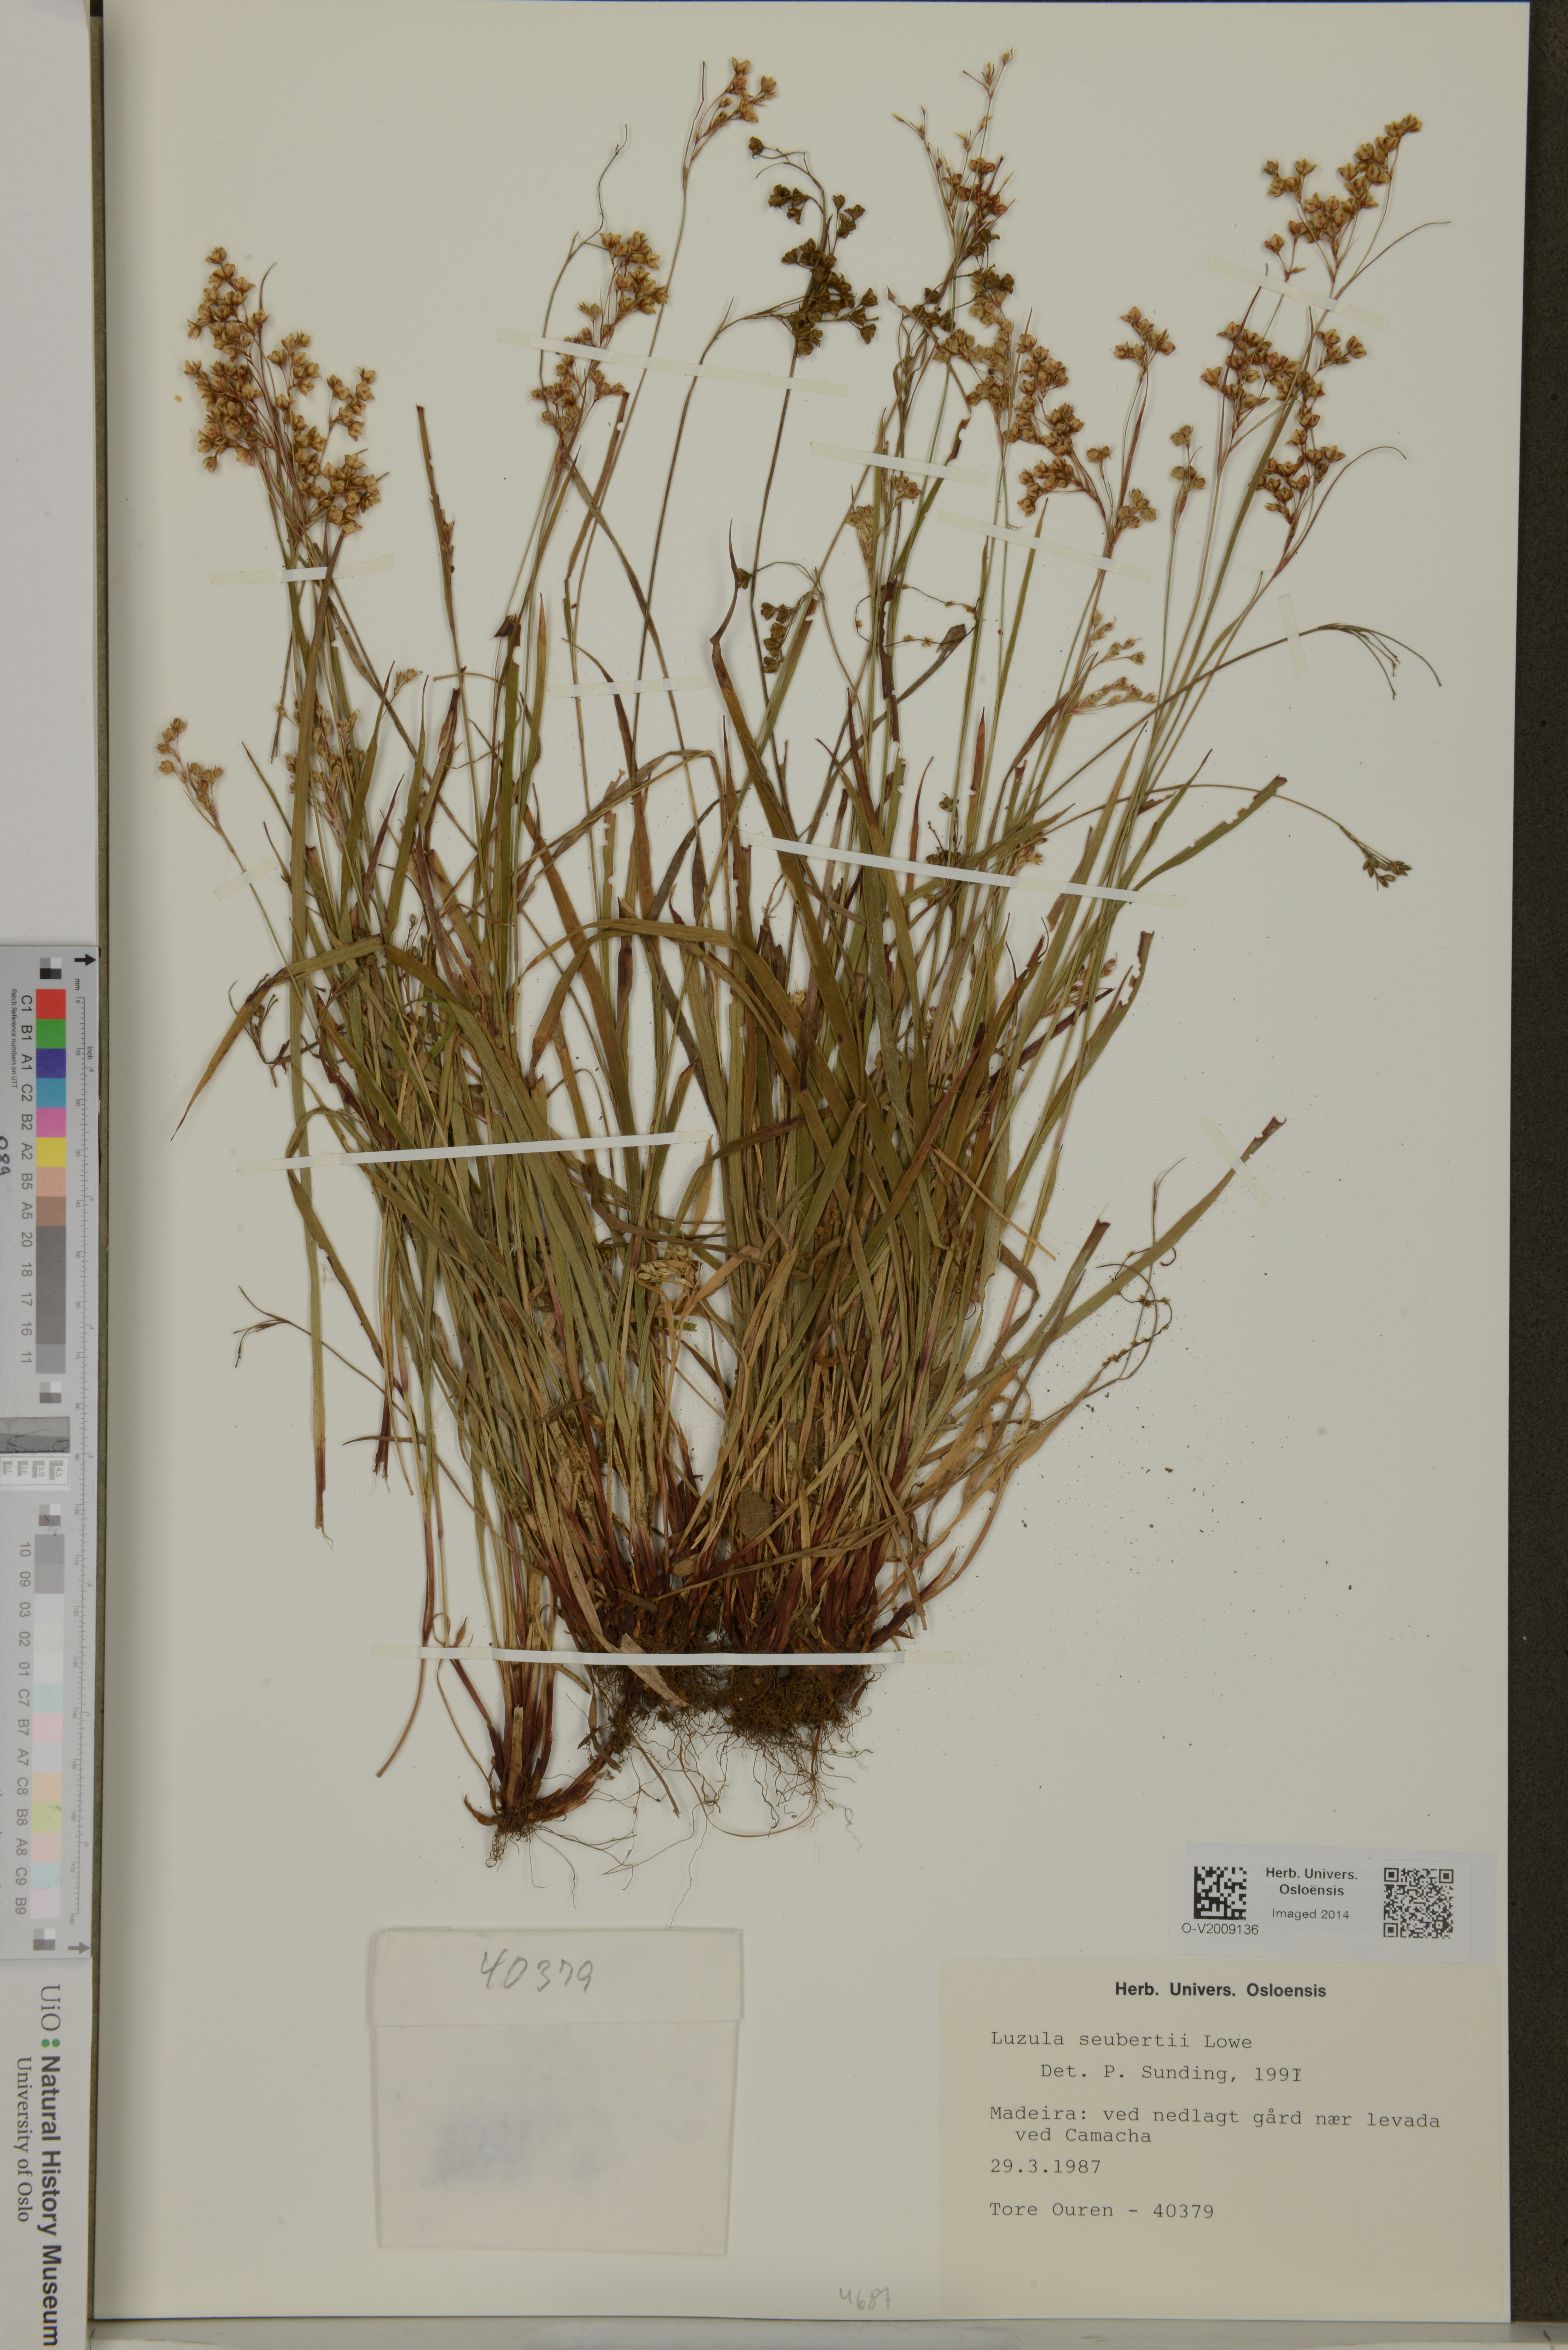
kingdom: Plantae
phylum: Tracheophyta
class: Liliopsida
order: Poales
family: Juncaceae
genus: Luzula
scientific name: Luzula seubertii
